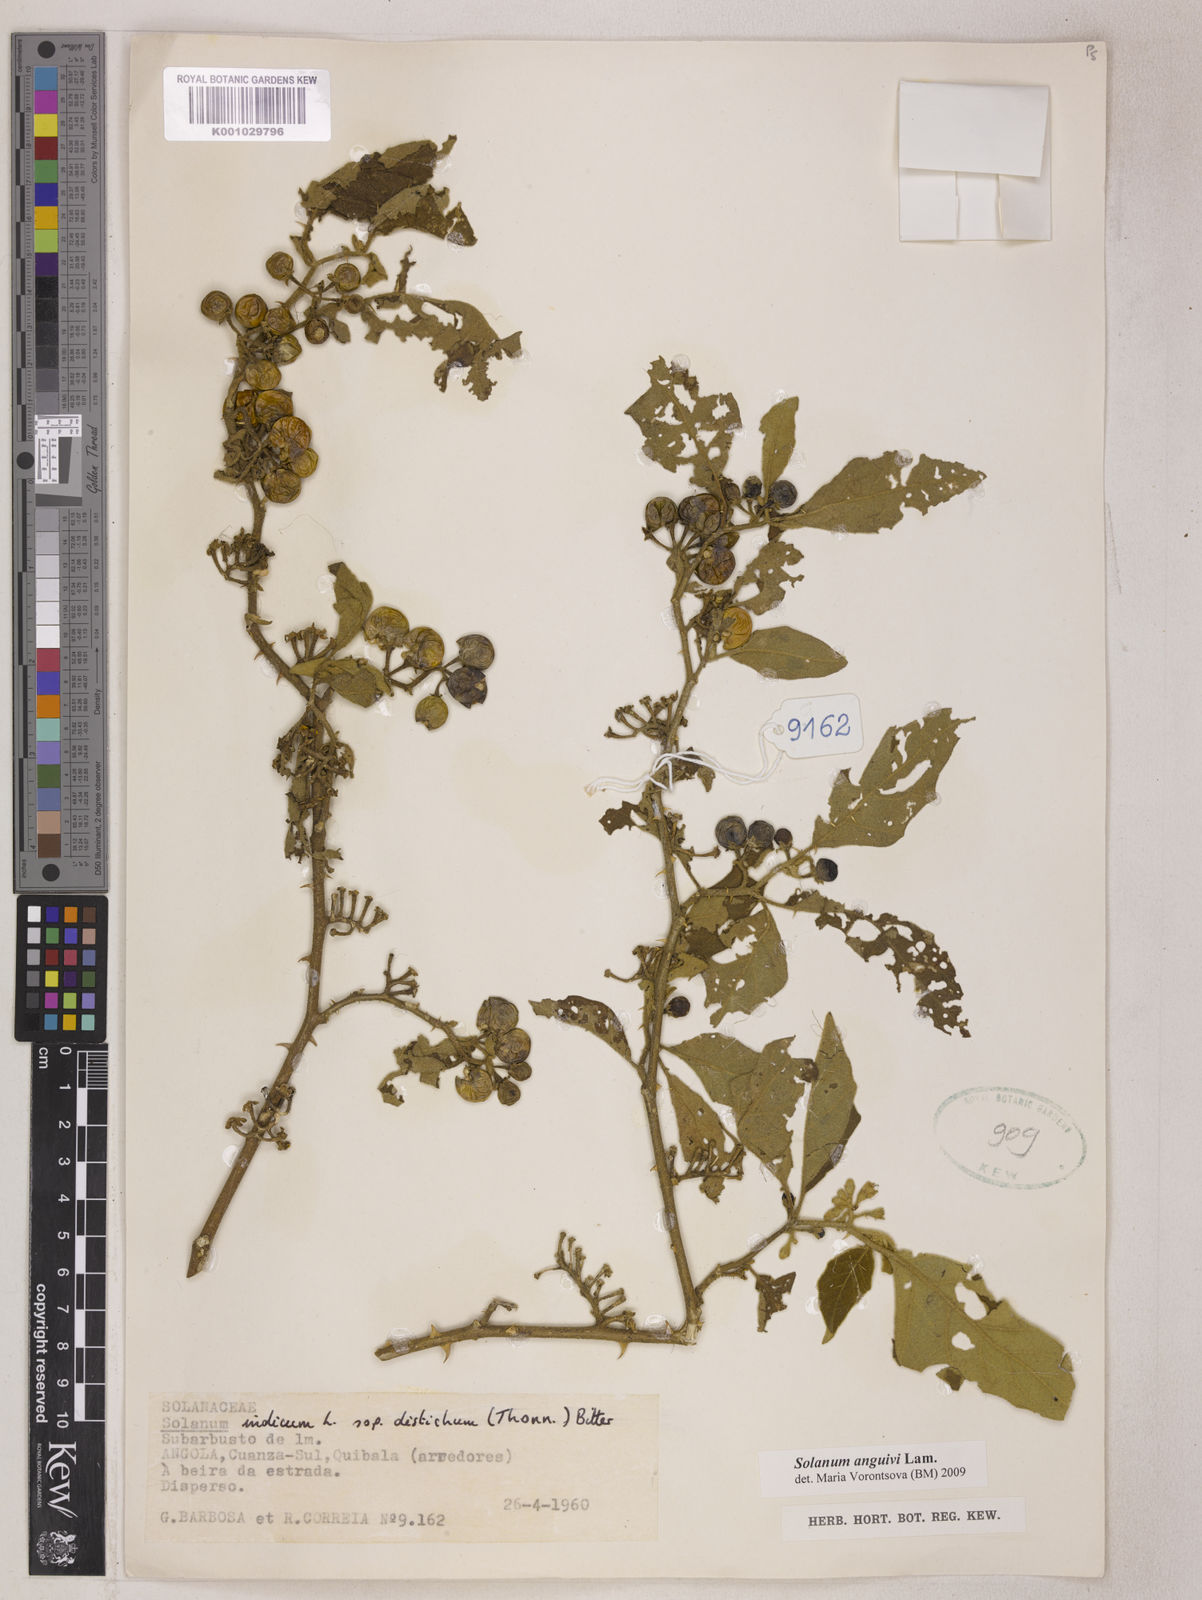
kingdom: Plantae
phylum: Tracheophyta
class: Magnoliopsida
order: Solanales
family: Solanaceae
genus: Solanum
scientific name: Solanum anguivi
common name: Forest bitterberry
